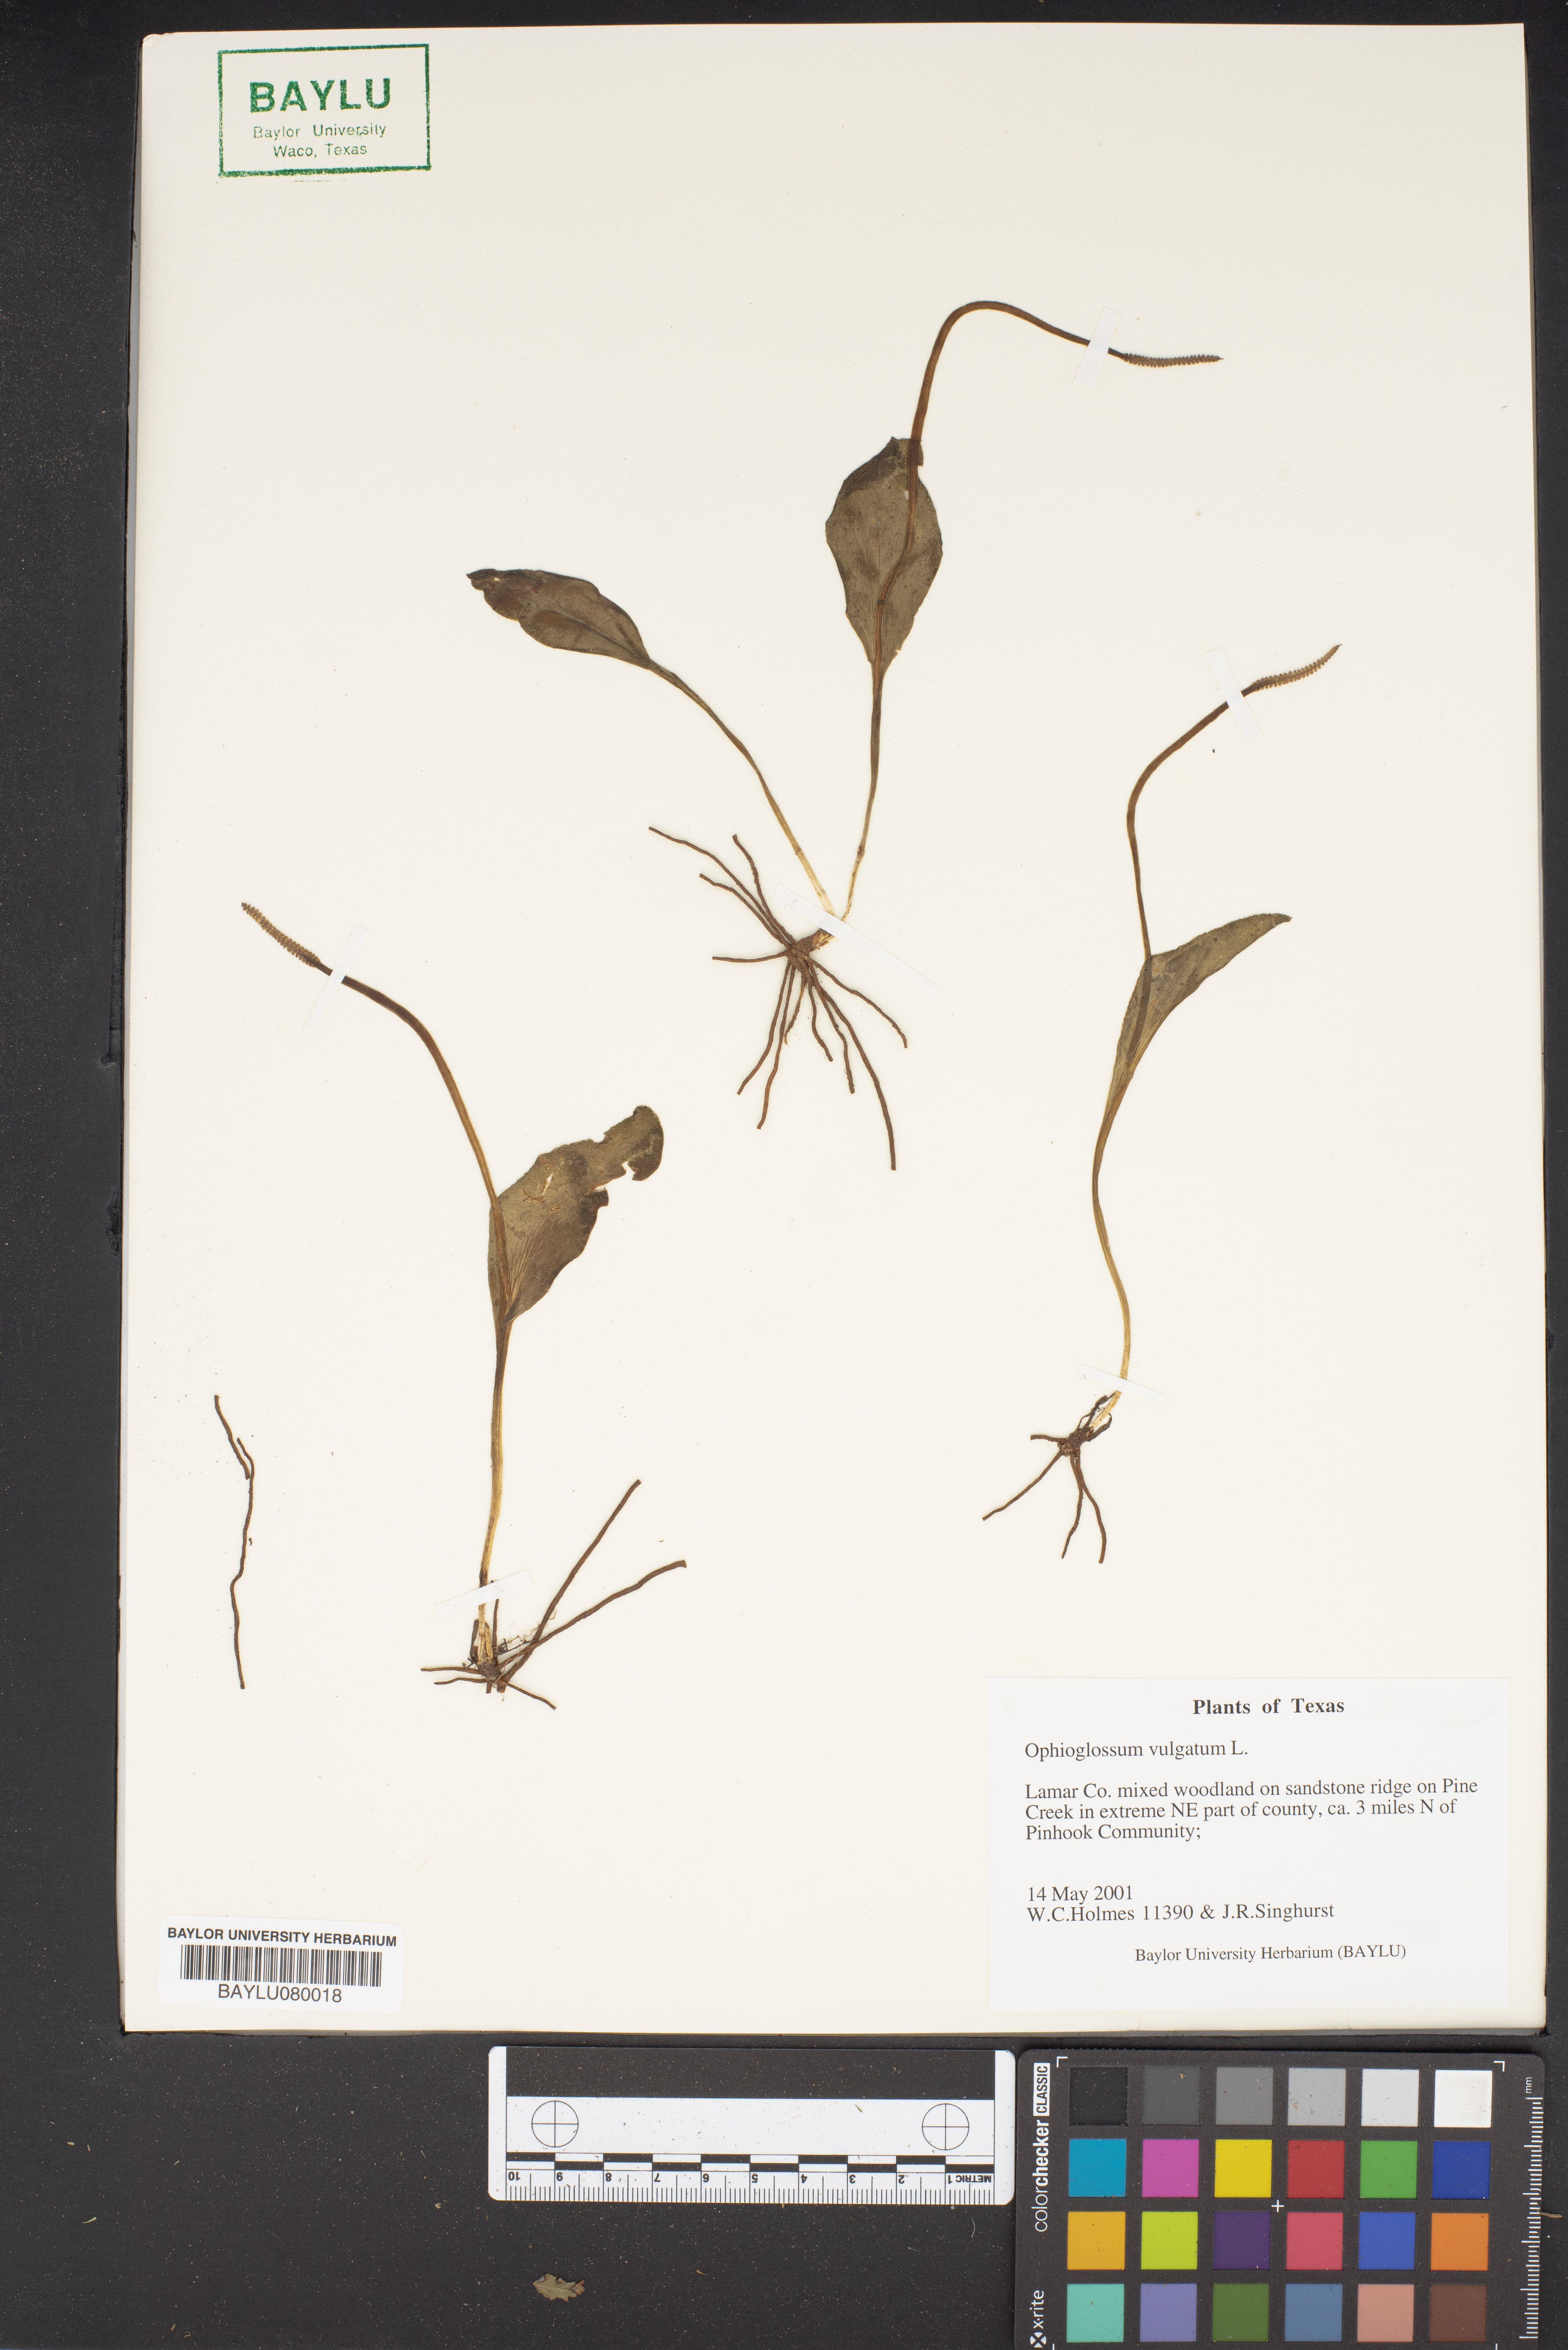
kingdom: Plantae
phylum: Tracheophyta
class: Polypodiopsida
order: Ophioglossales
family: Ophioglossaceae
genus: Ophioglossum
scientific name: Ophioglossum vulgatum
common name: Adder's-tongue
